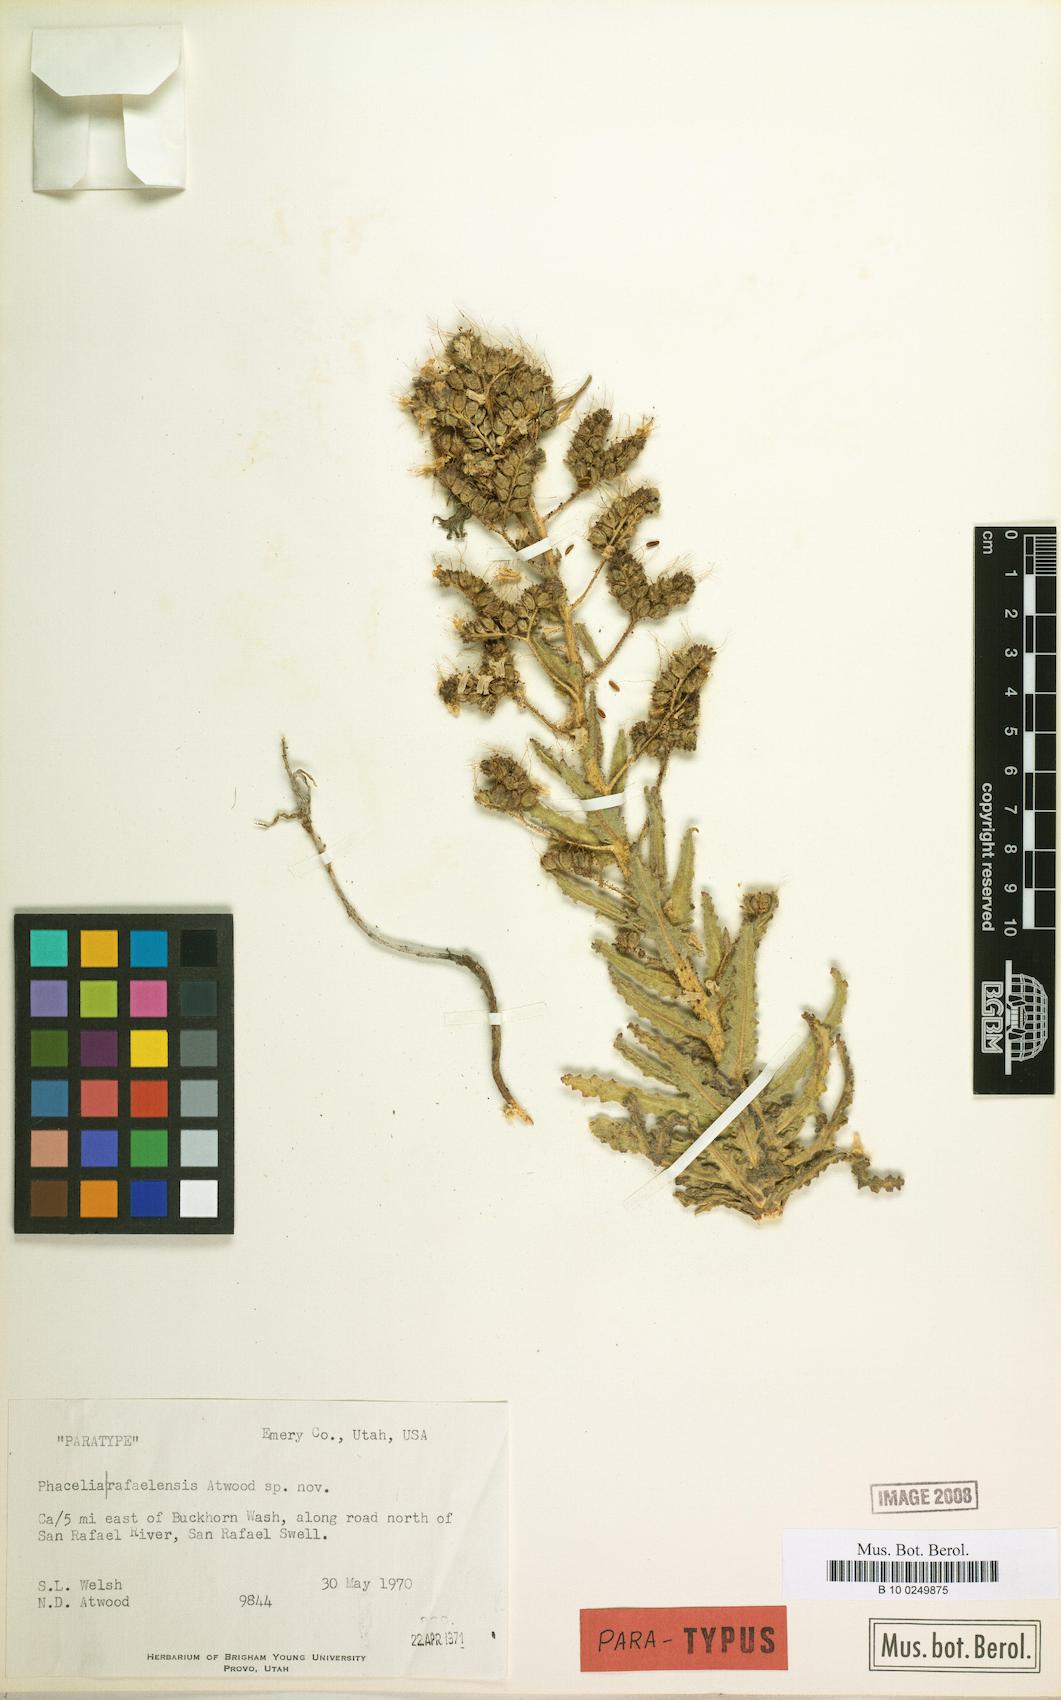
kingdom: Plantae
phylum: Tracheophyta
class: Magnoliopsida
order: Boraginales
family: Hydrophyllaceae
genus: Phacelia
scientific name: Phacelia rafaelensis
